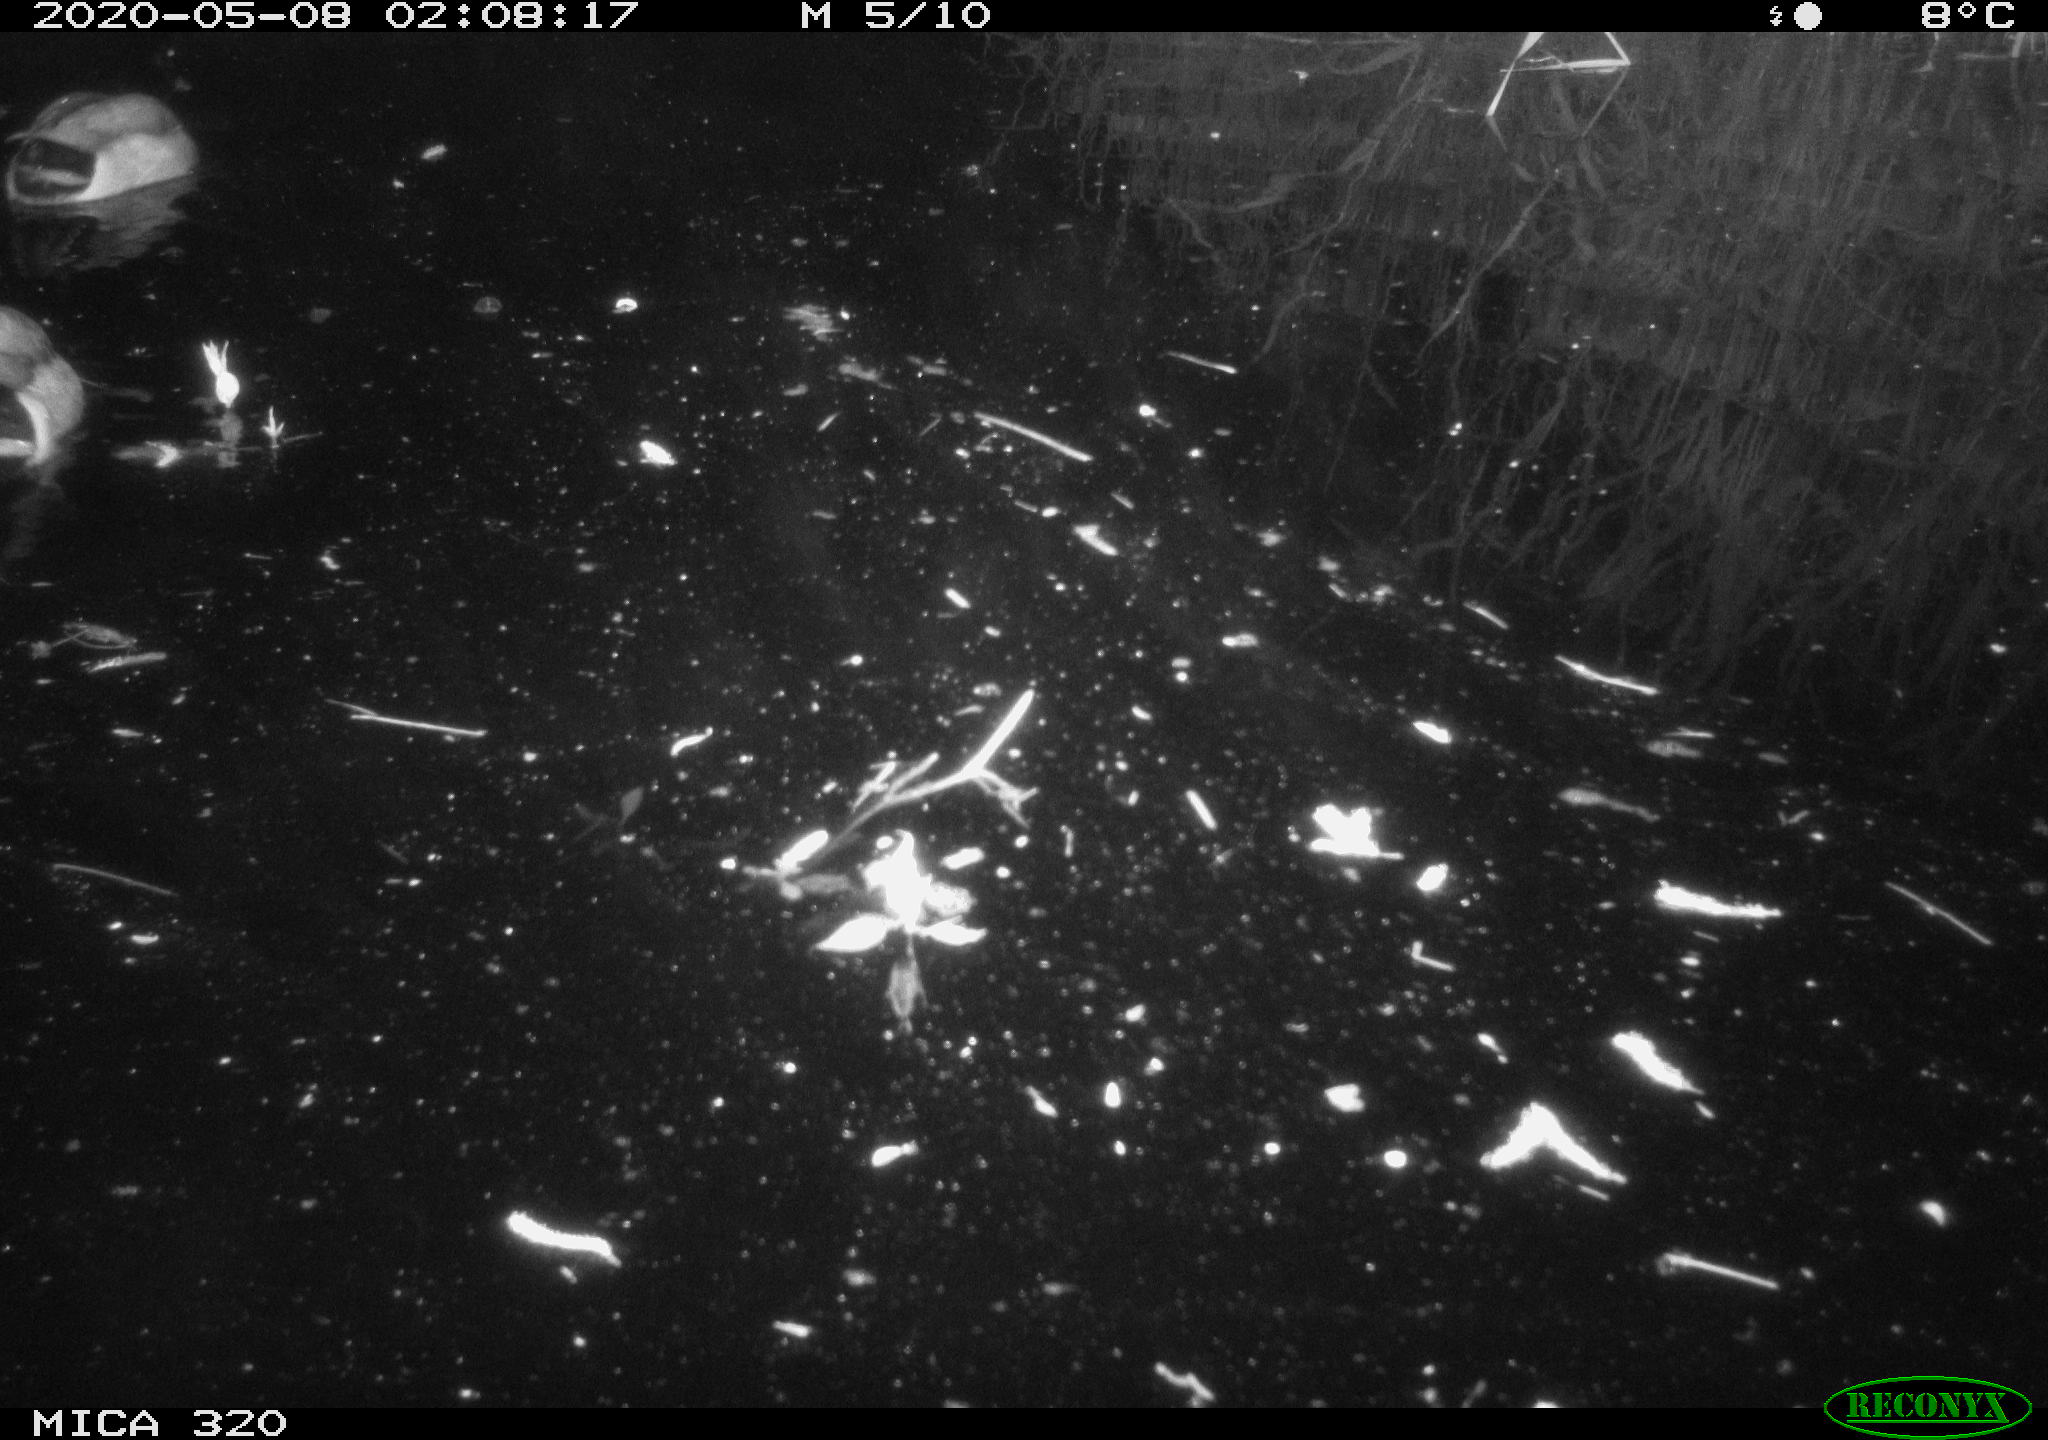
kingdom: Animalia
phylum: Chordata
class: Aves
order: Anseriformes
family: Anatidae
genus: Anas
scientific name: Anas platyrhynchos
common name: Mallard
